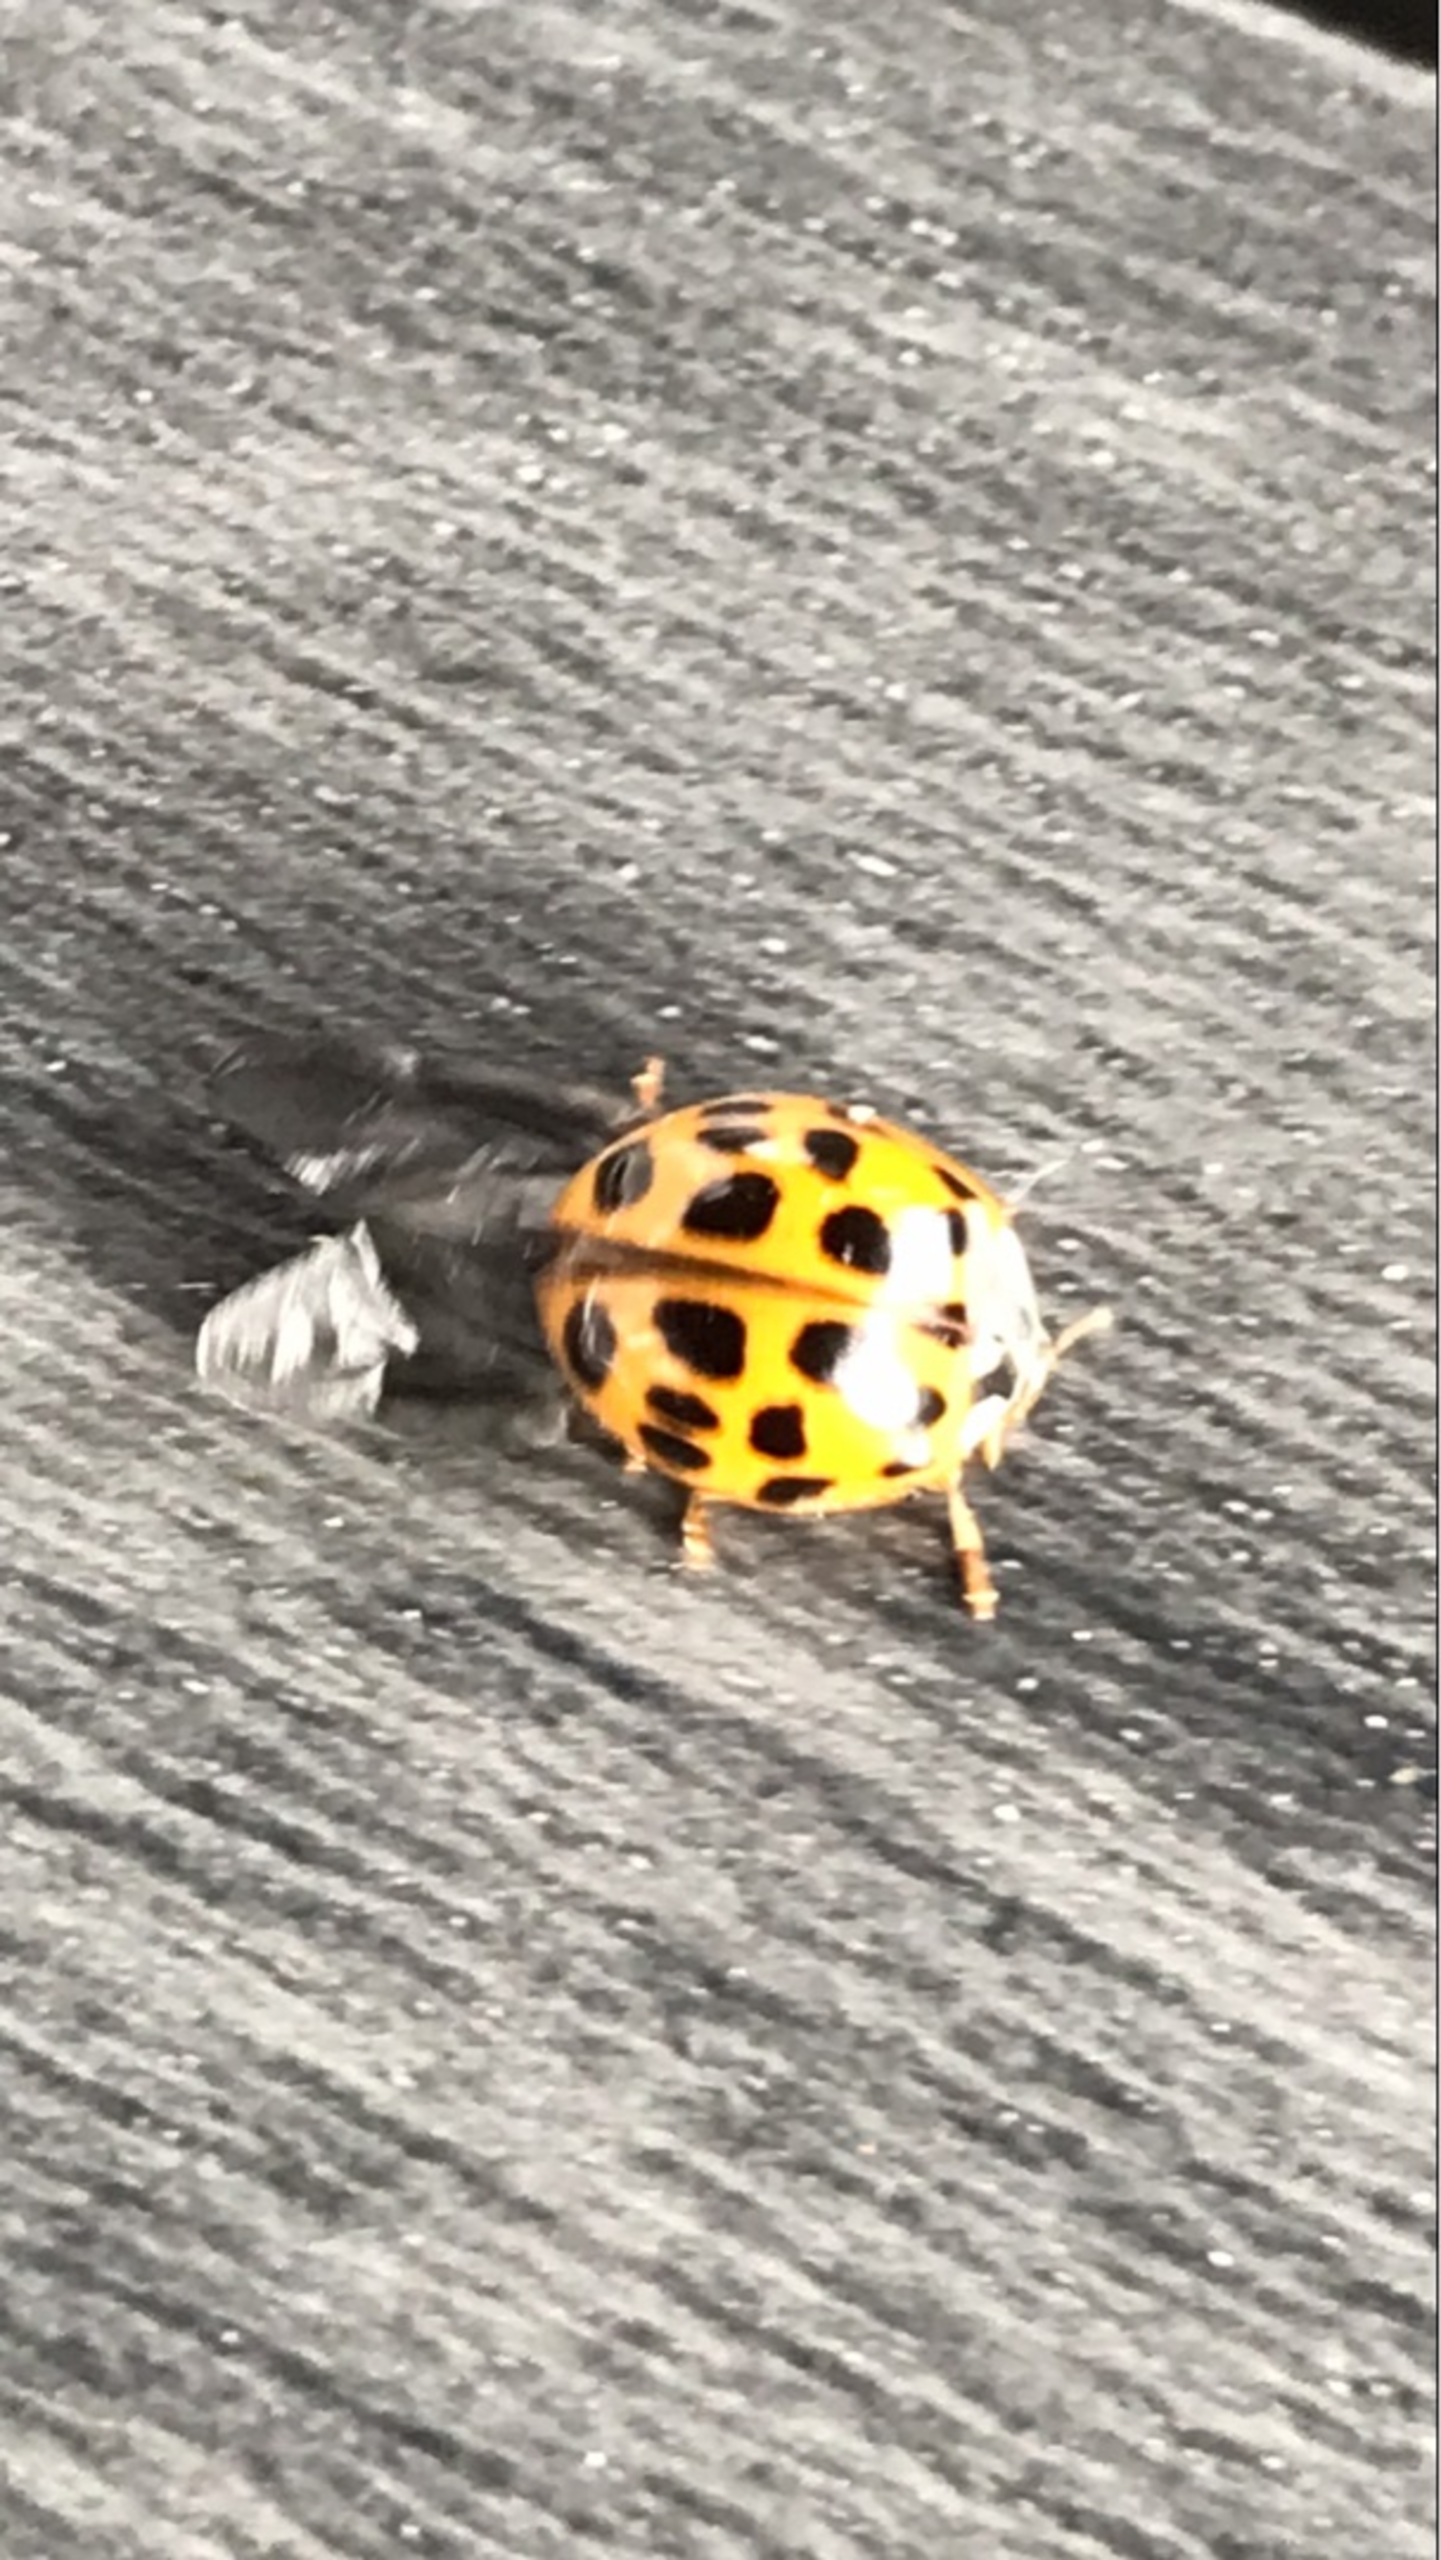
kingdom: Animalia
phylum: Arthropoda
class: Insecta
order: Coleoptera
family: Coccinellidae
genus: Psyllobora
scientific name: Psyllobora vigintiduopunctata
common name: Toogtyveplettet mariehøne
